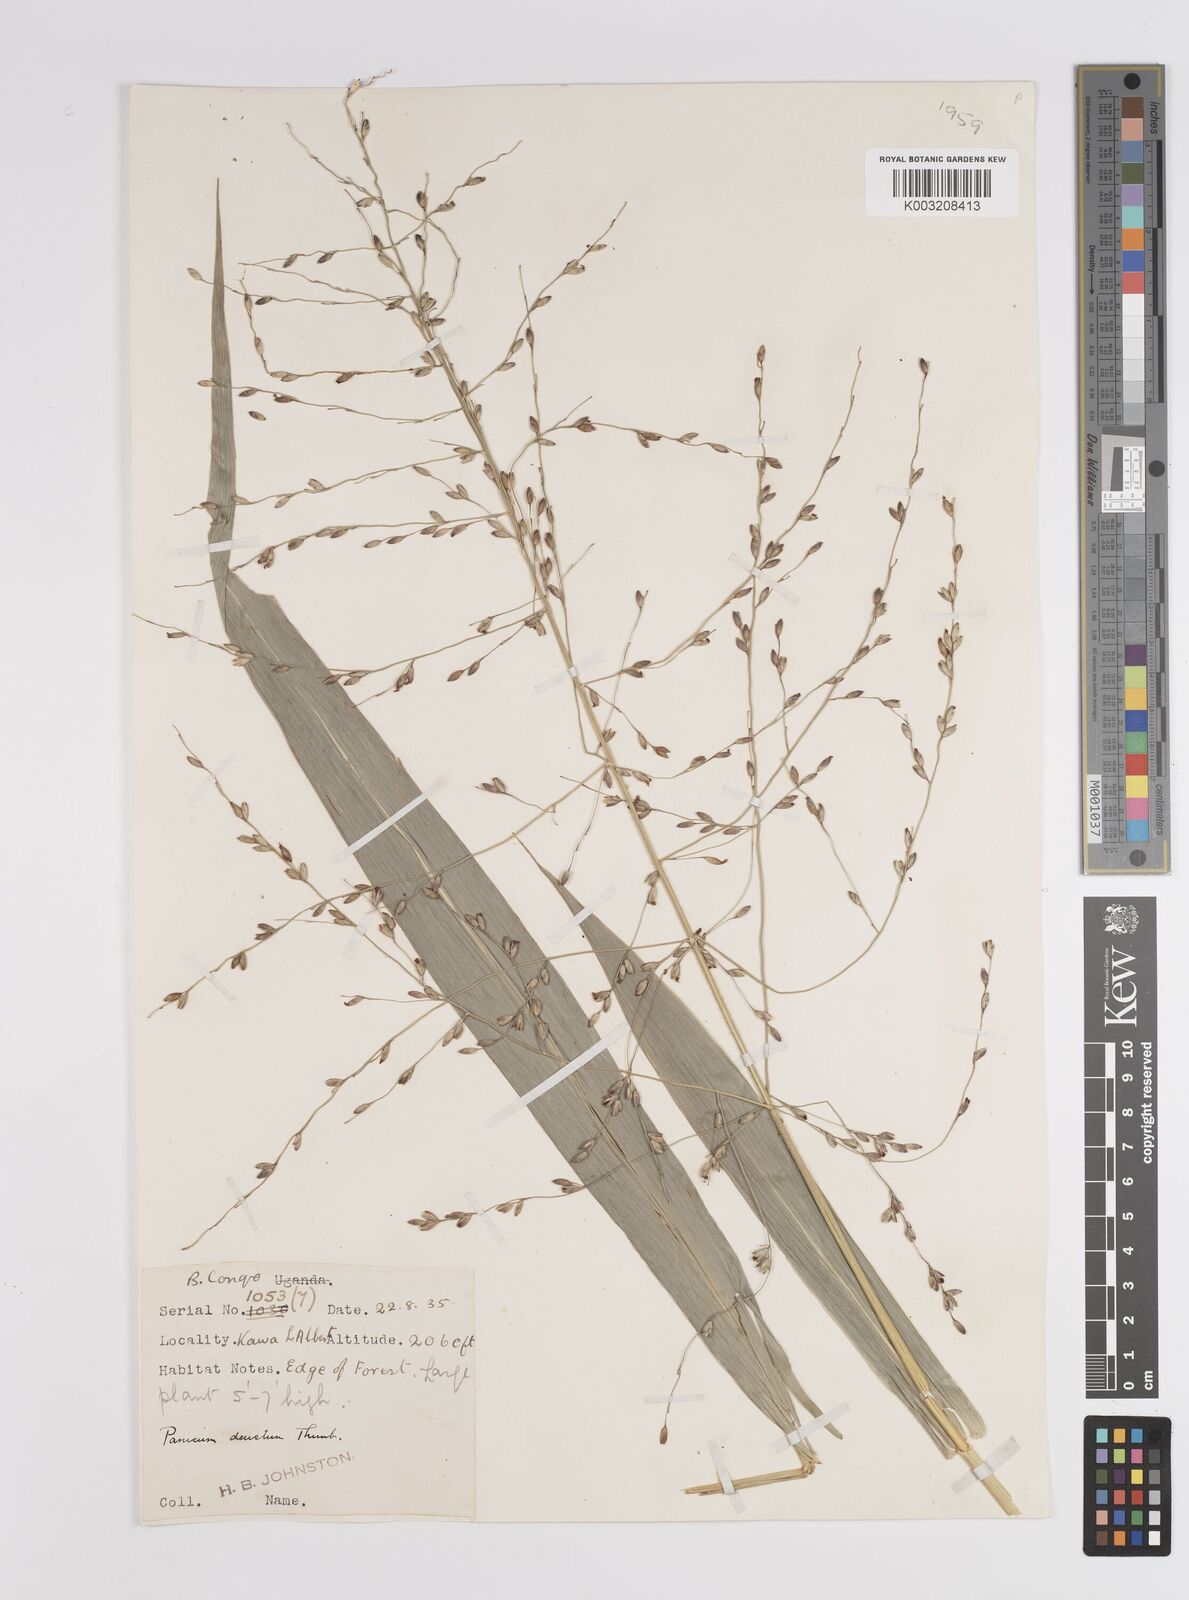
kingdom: Plantae
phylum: Tracheophyta
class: Liliopsida
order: Poales
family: Poaceae
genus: Panicum
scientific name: Panicum deustum
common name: Reed panicum
